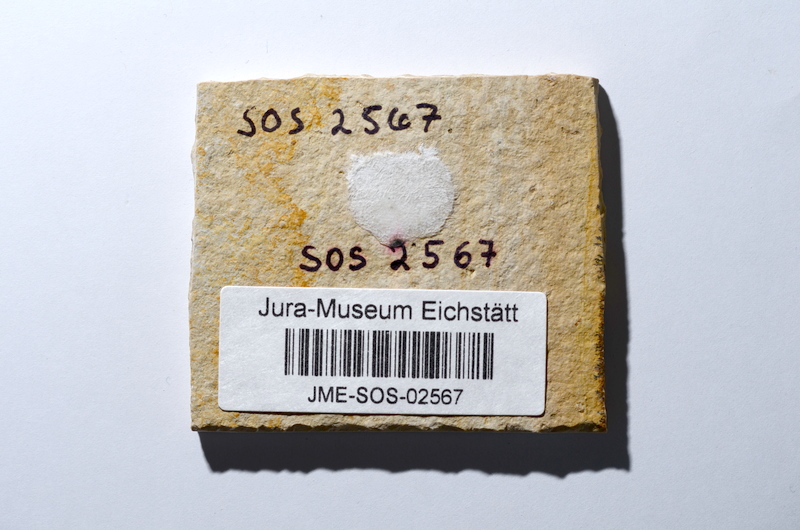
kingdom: Animalia
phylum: Chordata
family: Ascalaboidae
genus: Tharsis
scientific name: Tharsis dubius
